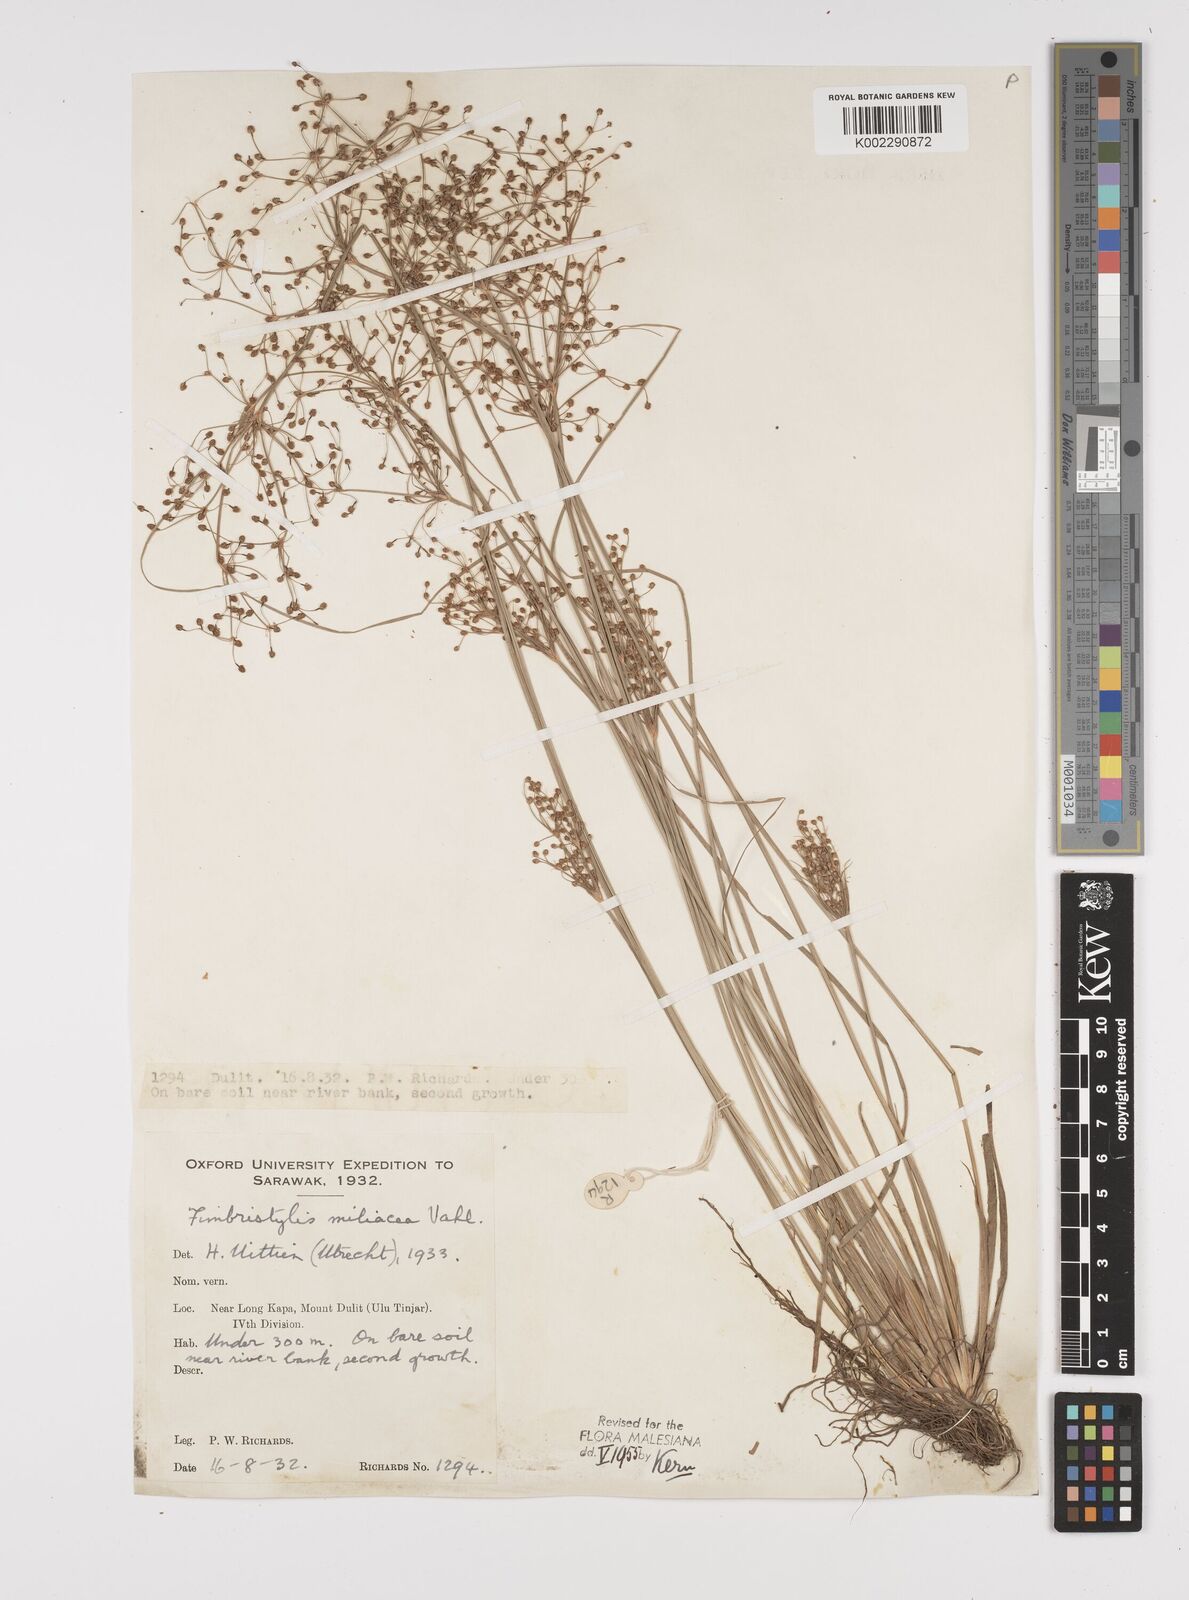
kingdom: Plantae
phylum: Tracheophyta
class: Liliopsida
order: Poales
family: Cyperaceae
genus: Fimbristylis
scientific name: Fimbristylis littoralis
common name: Fimbry
